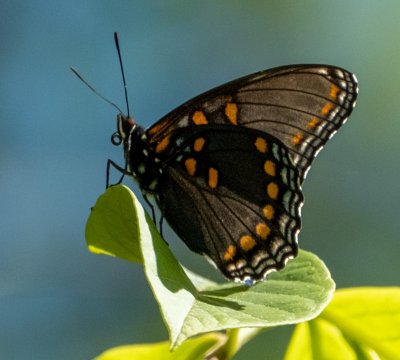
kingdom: Animalia
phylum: Arthropoda
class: Insecta
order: Lepidoptera
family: Nymphalidae
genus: Limenitis
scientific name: Limenitis arthemis
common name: Red-spotted Admiral
